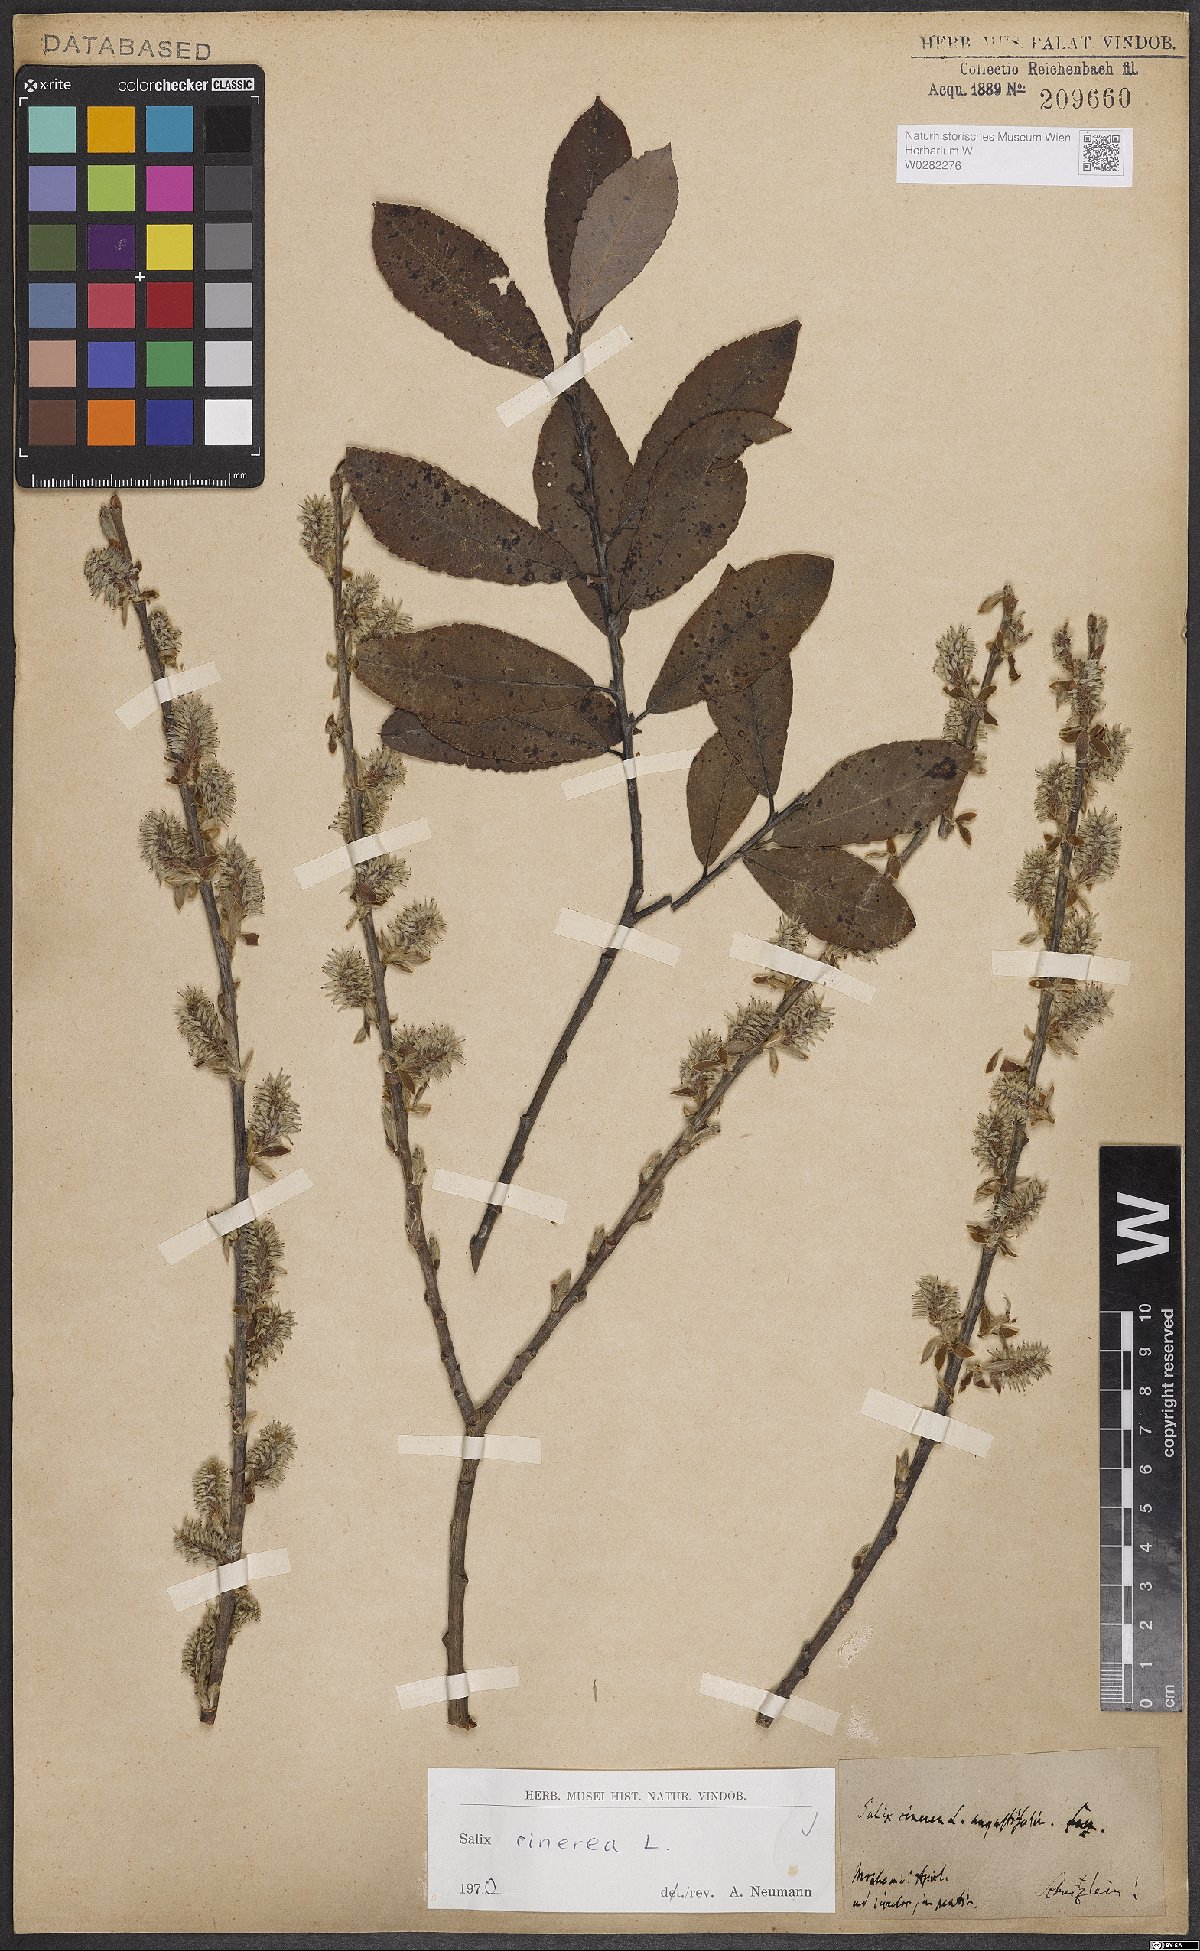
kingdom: Plantae
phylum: Tracheophyta
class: Magnoliopsida
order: Malpighiales
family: Salicaceae
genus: Salix
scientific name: Salix cinerea
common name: Common sallow
